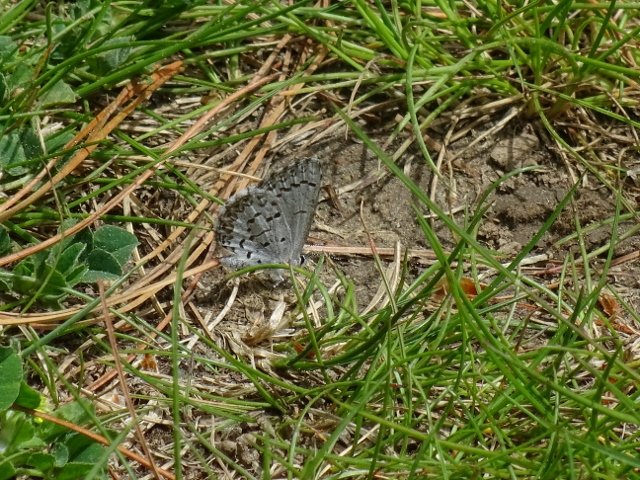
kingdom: Animalia
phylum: Arthropoda
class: Insecta
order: Lepidoptera
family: Lycaenidae
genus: Celastrina
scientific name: Celastrina
